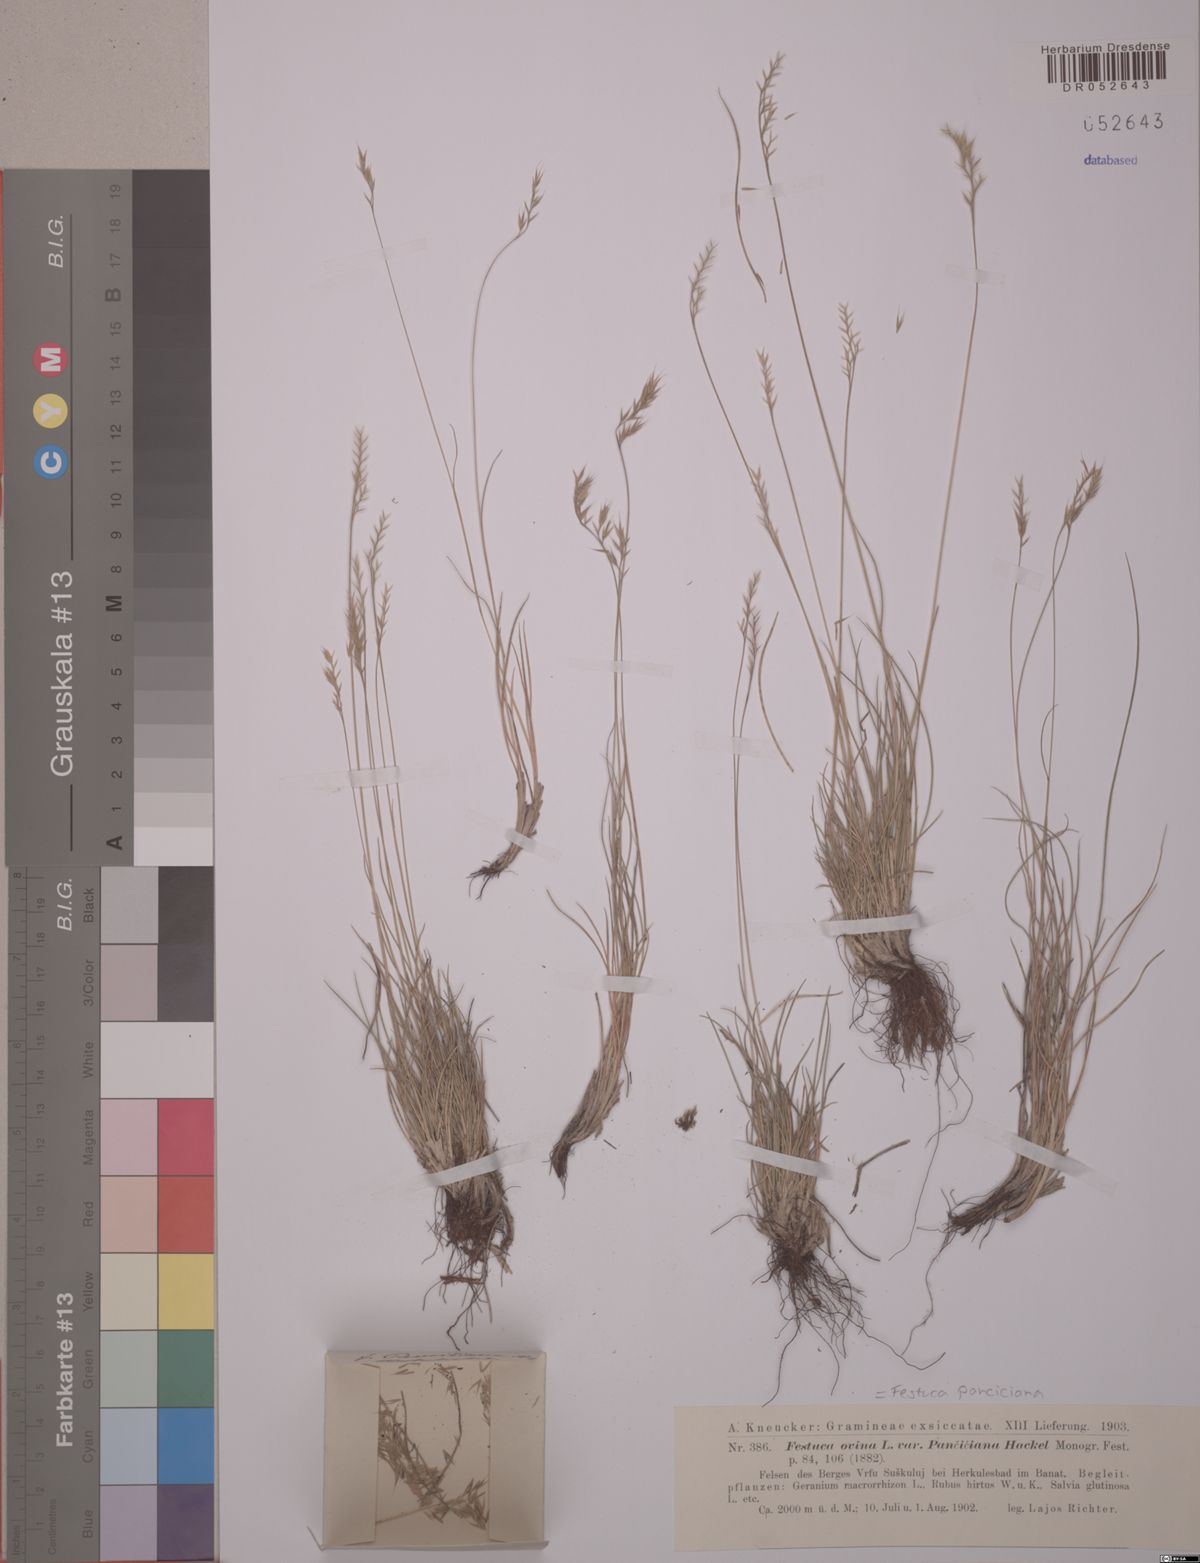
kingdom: Plantae
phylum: Tracheophyta
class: Liliopsida
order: Poales
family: Poaceae
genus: Festuca
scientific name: Festuca panciciana
